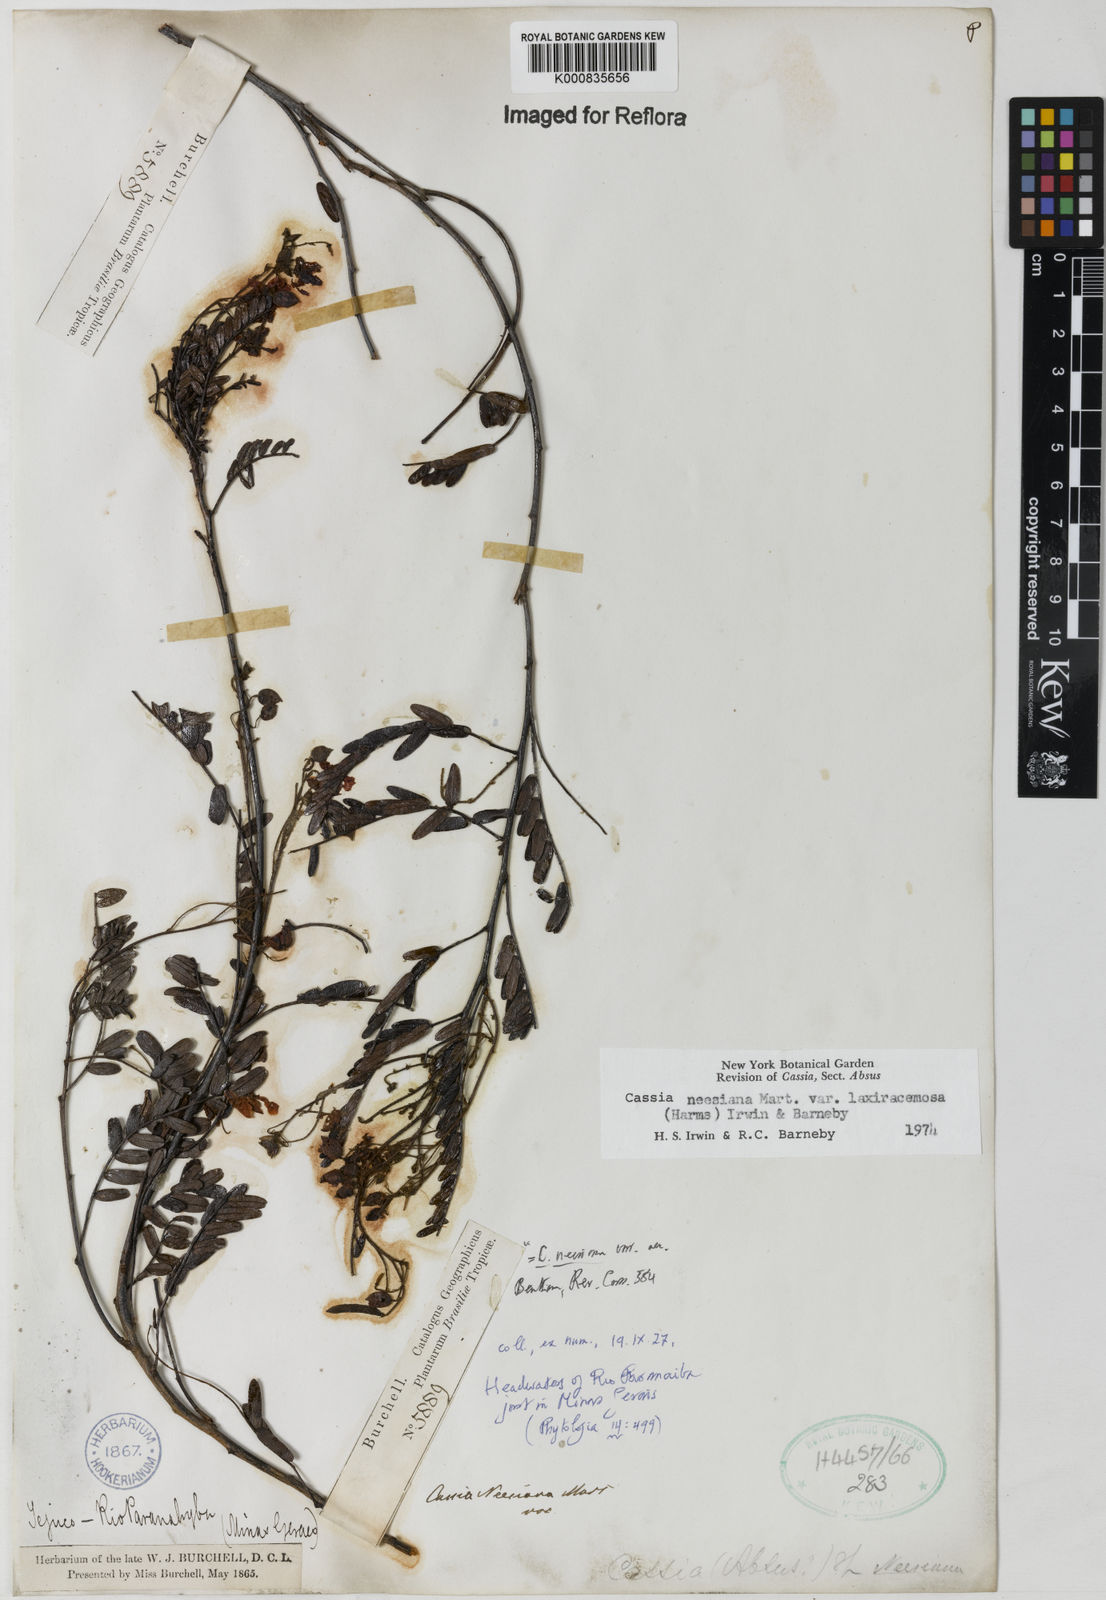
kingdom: Plantae
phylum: Tracheophyta
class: Magnoliopsida
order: Fabales
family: Fabaceae
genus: Chamaecrista
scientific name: Chamaecrista neesiana
